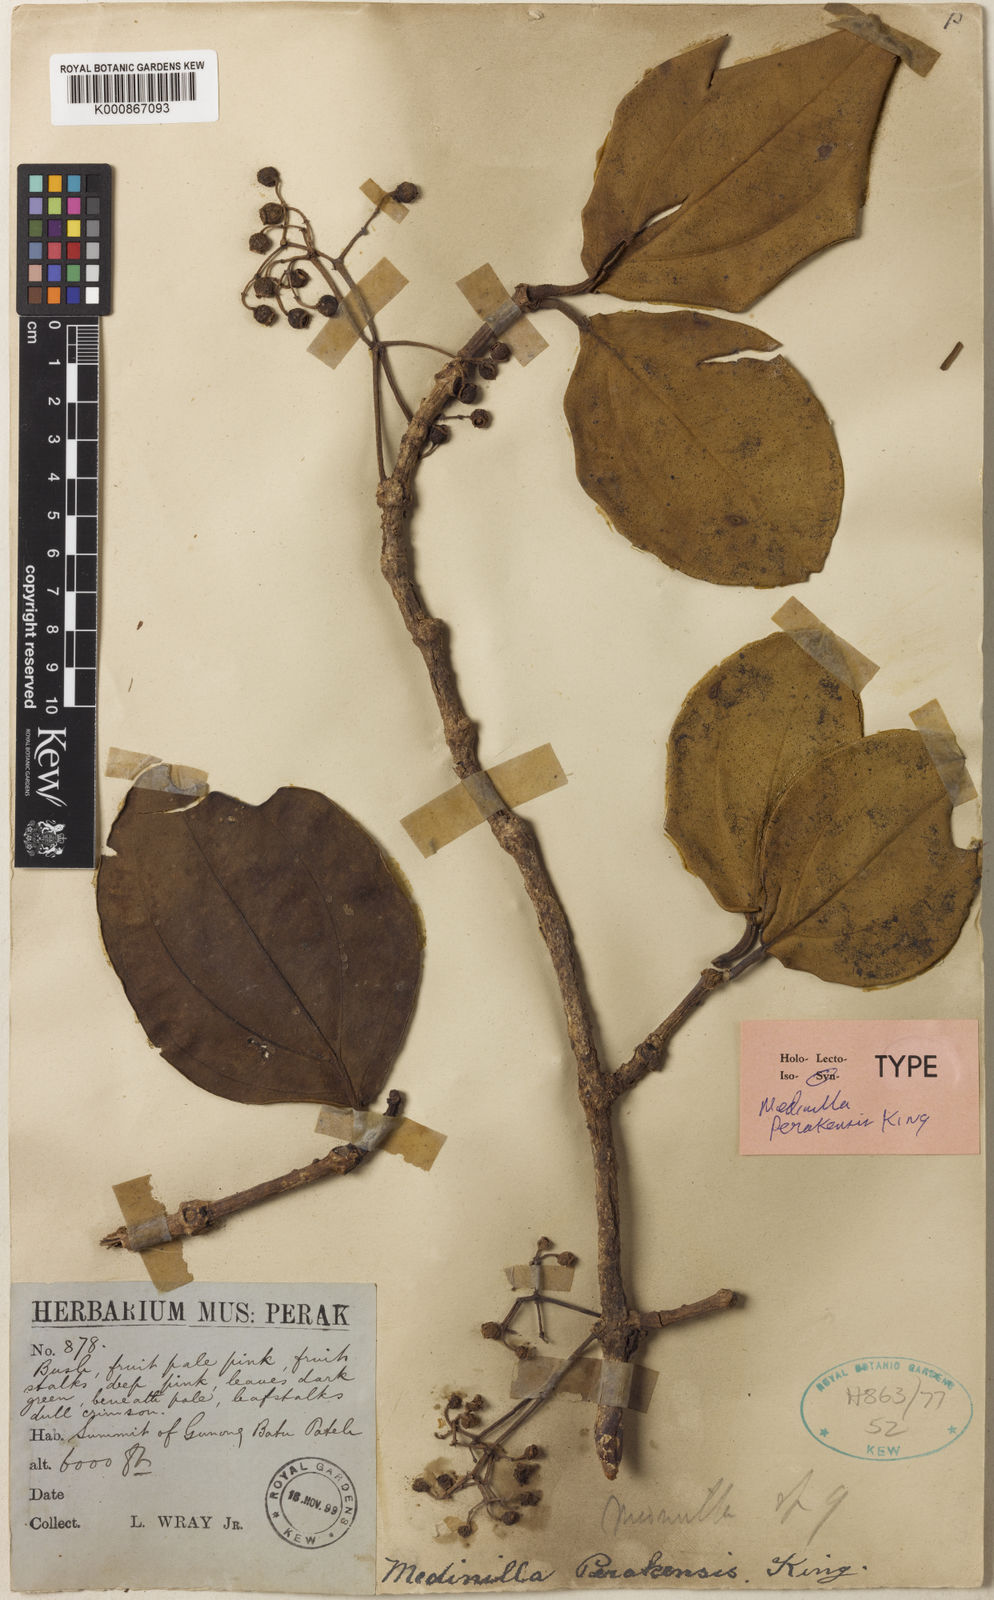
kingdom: Plantae
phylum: Tracheophyta
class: Magnoliopsida
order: Myrtales
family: Melastomataceae
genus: Medinilla
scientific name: Medinilla clarkei
